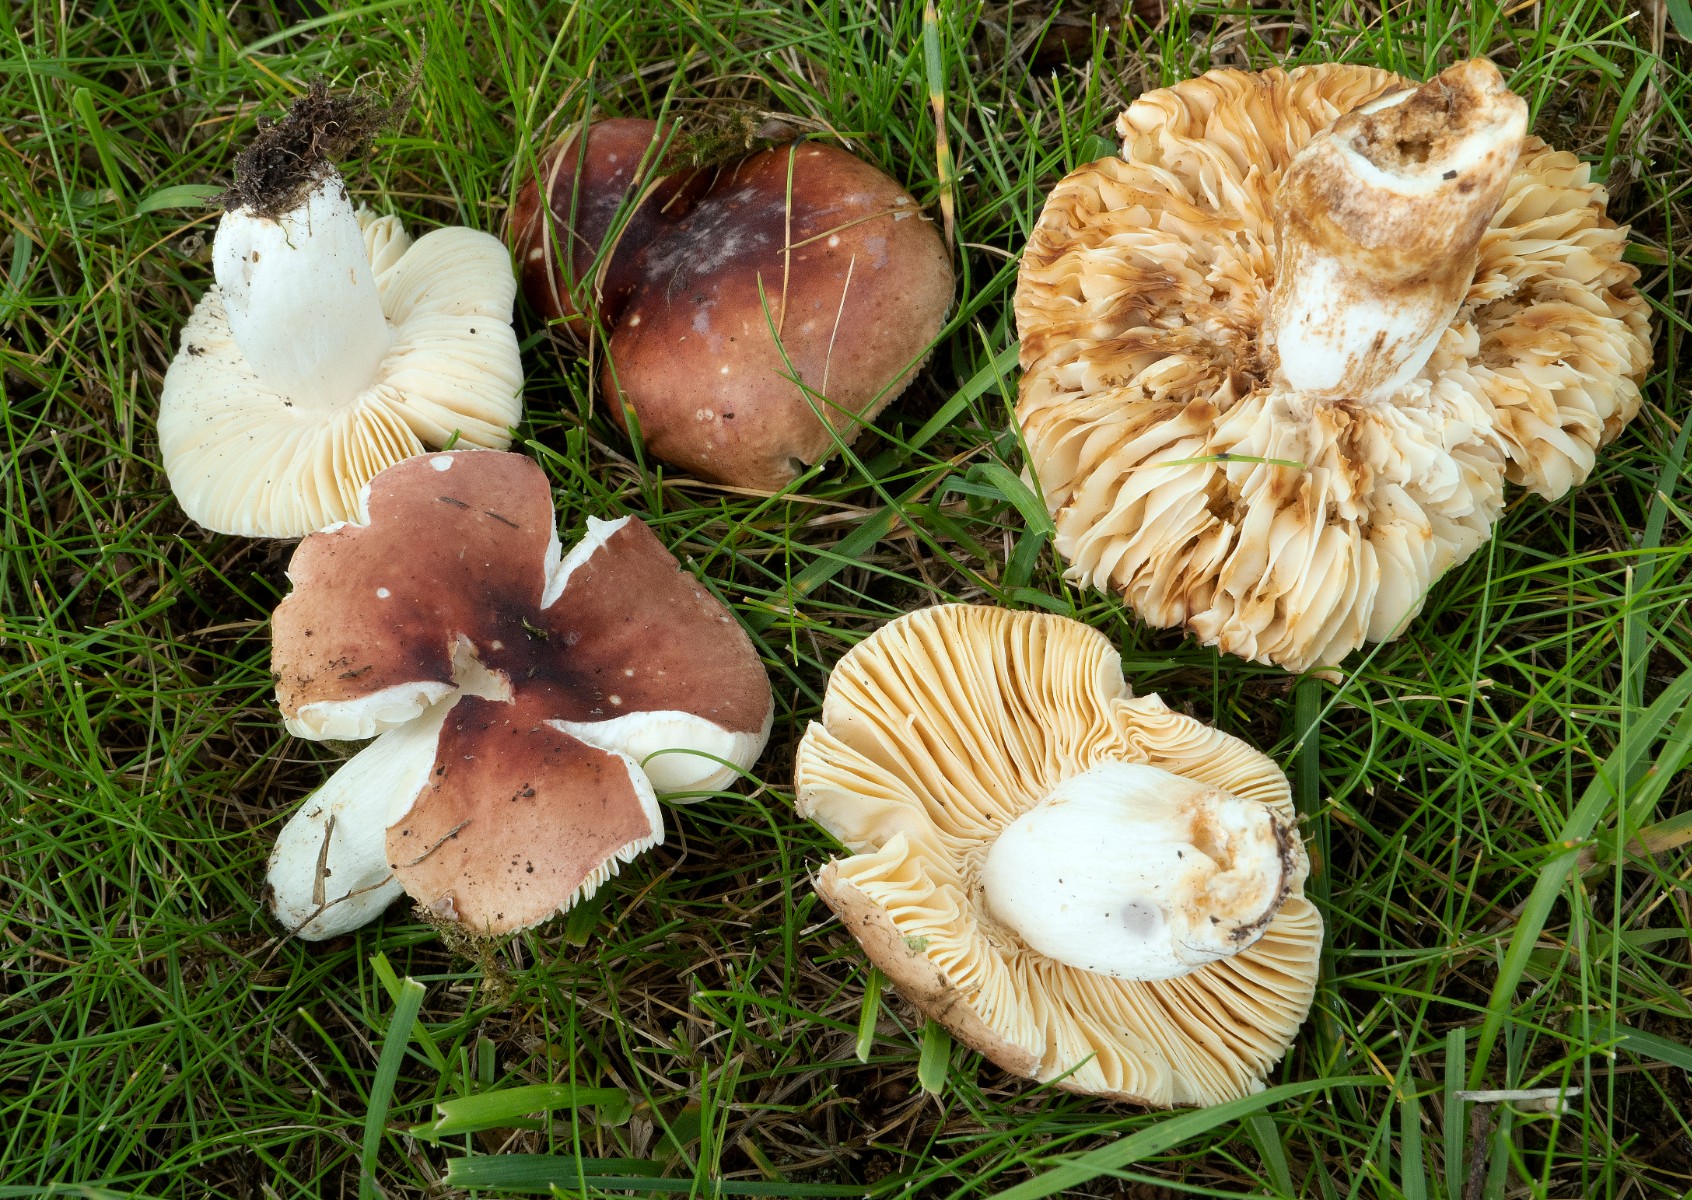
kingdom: Fungi
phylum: Basidiomycota
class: Agaricomycetes
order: Russulales
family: Russulaceae
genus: Russula
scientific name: Russula fontqueri
